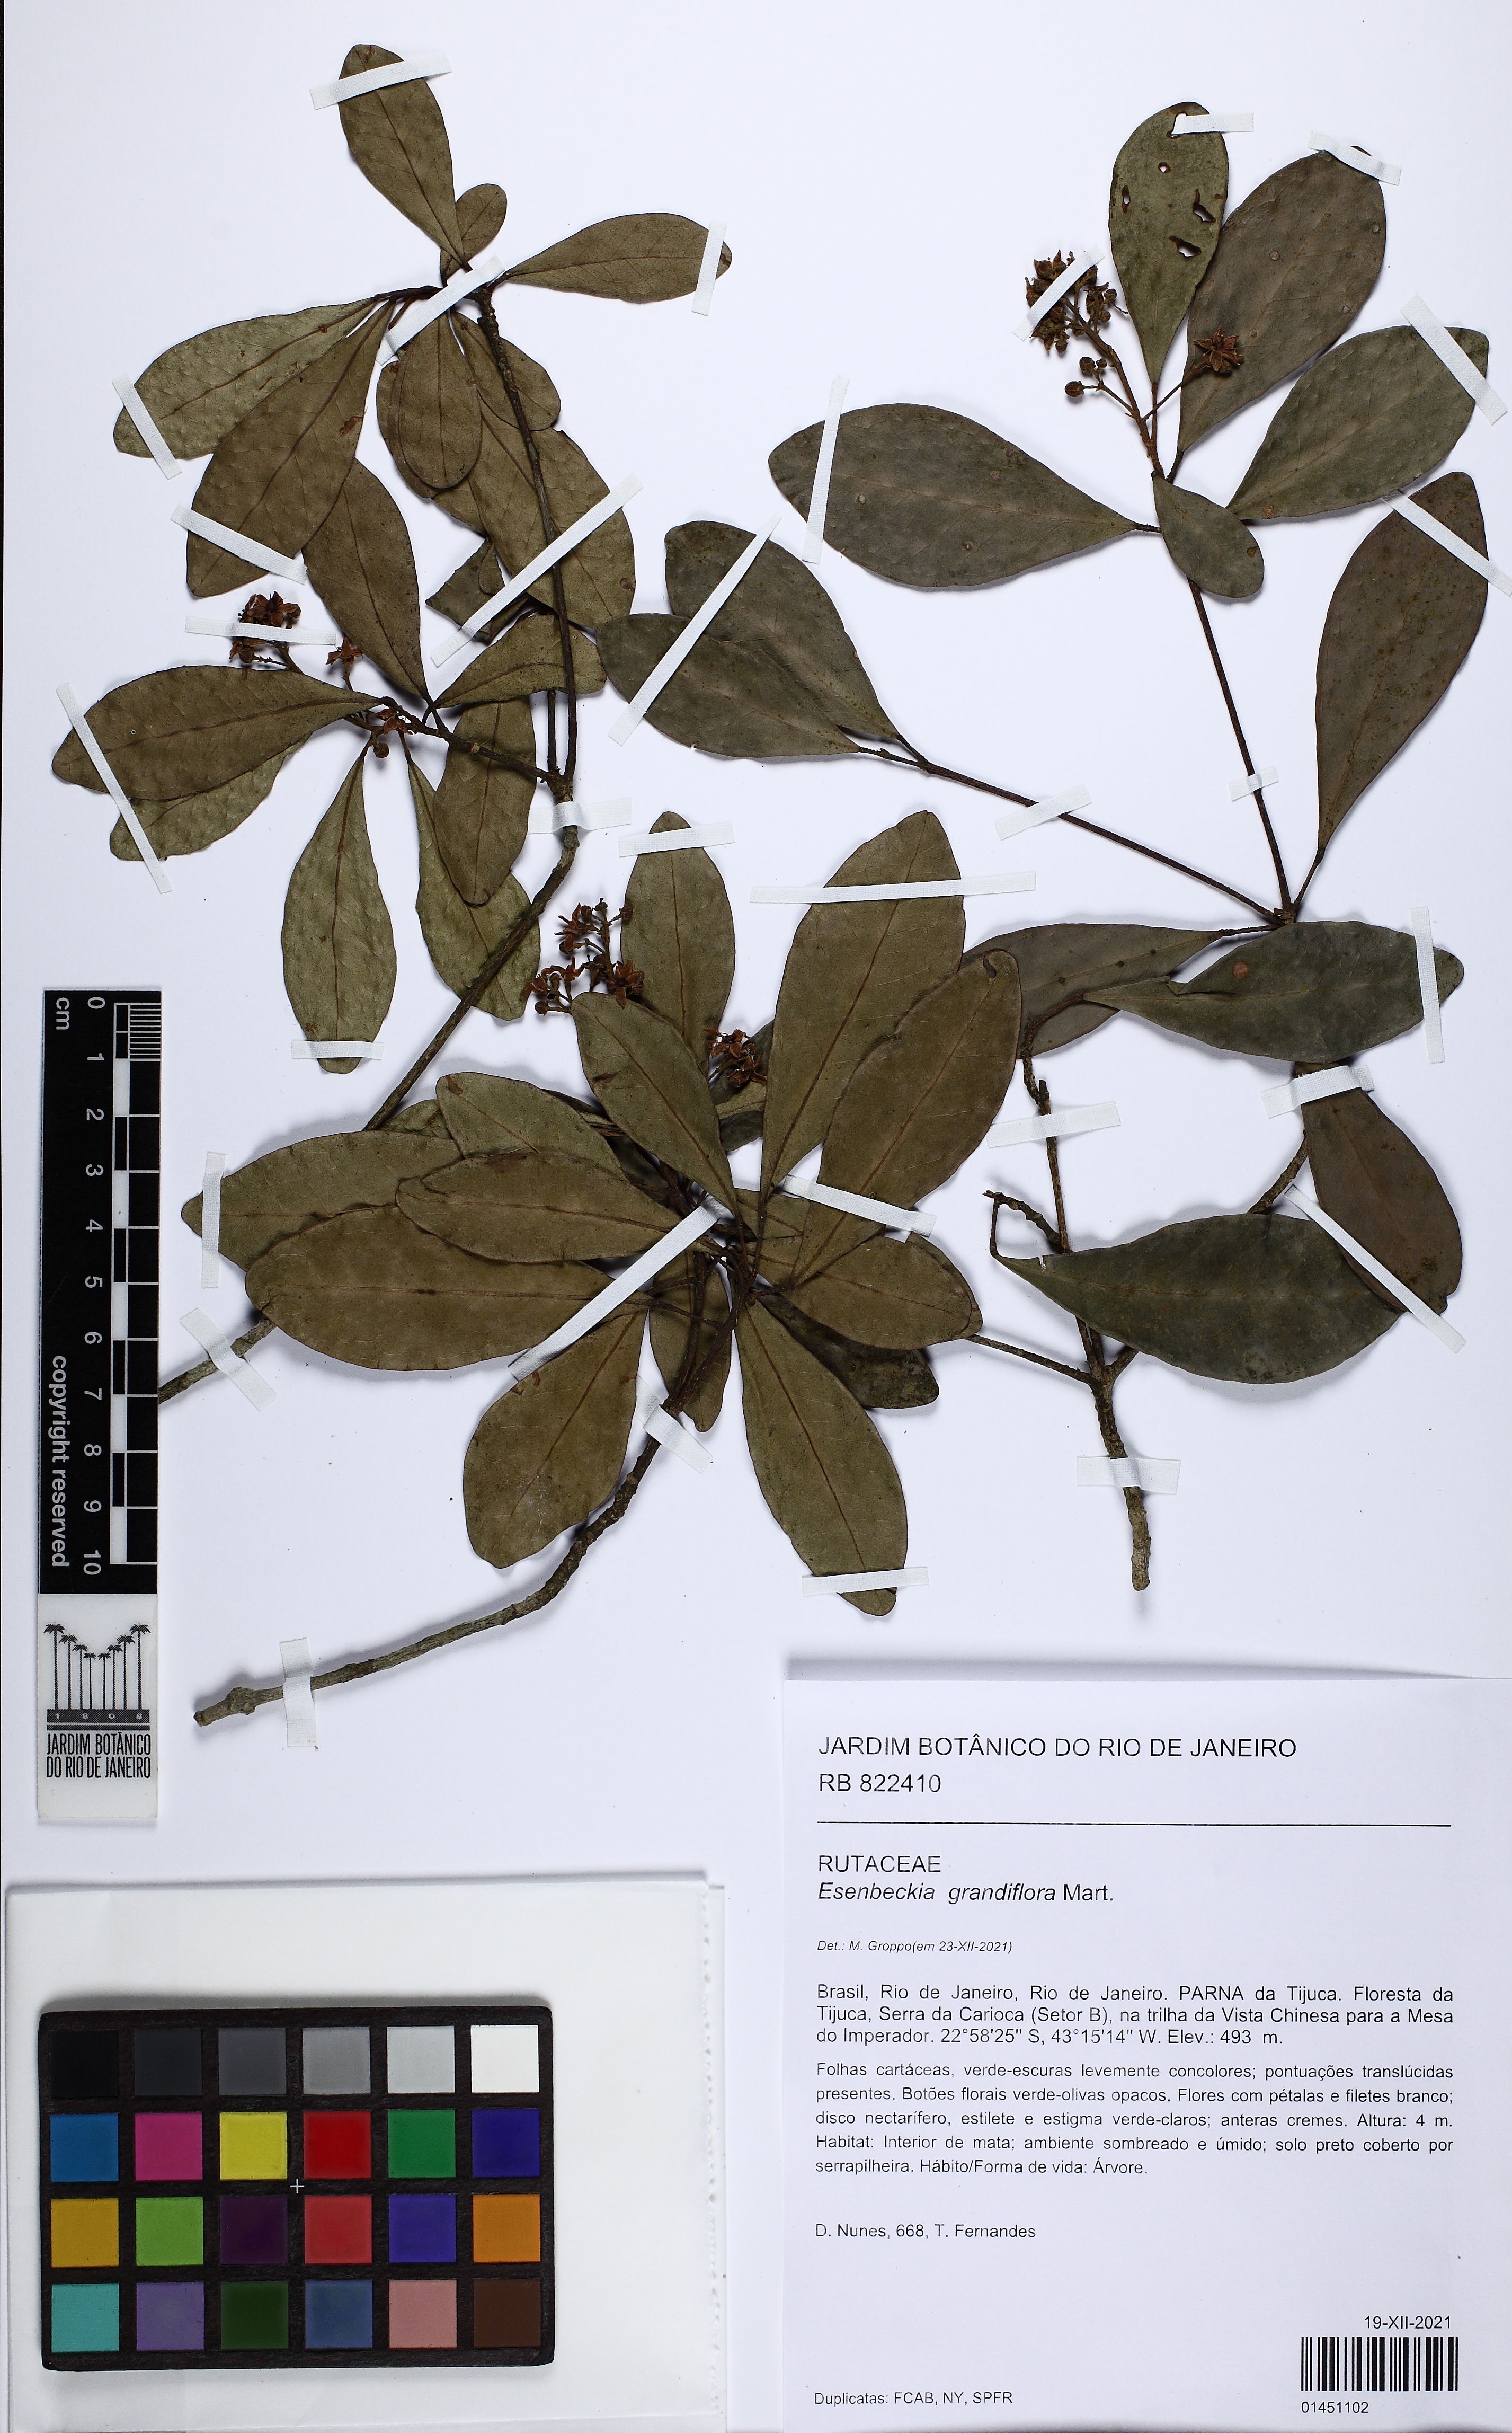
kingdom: Plantae
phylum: Tracheophyta
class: Magnoliopsida
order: Sapindales
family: Rutaceae
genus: Esenbeckia
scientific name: Esenbeckia grandiflora
